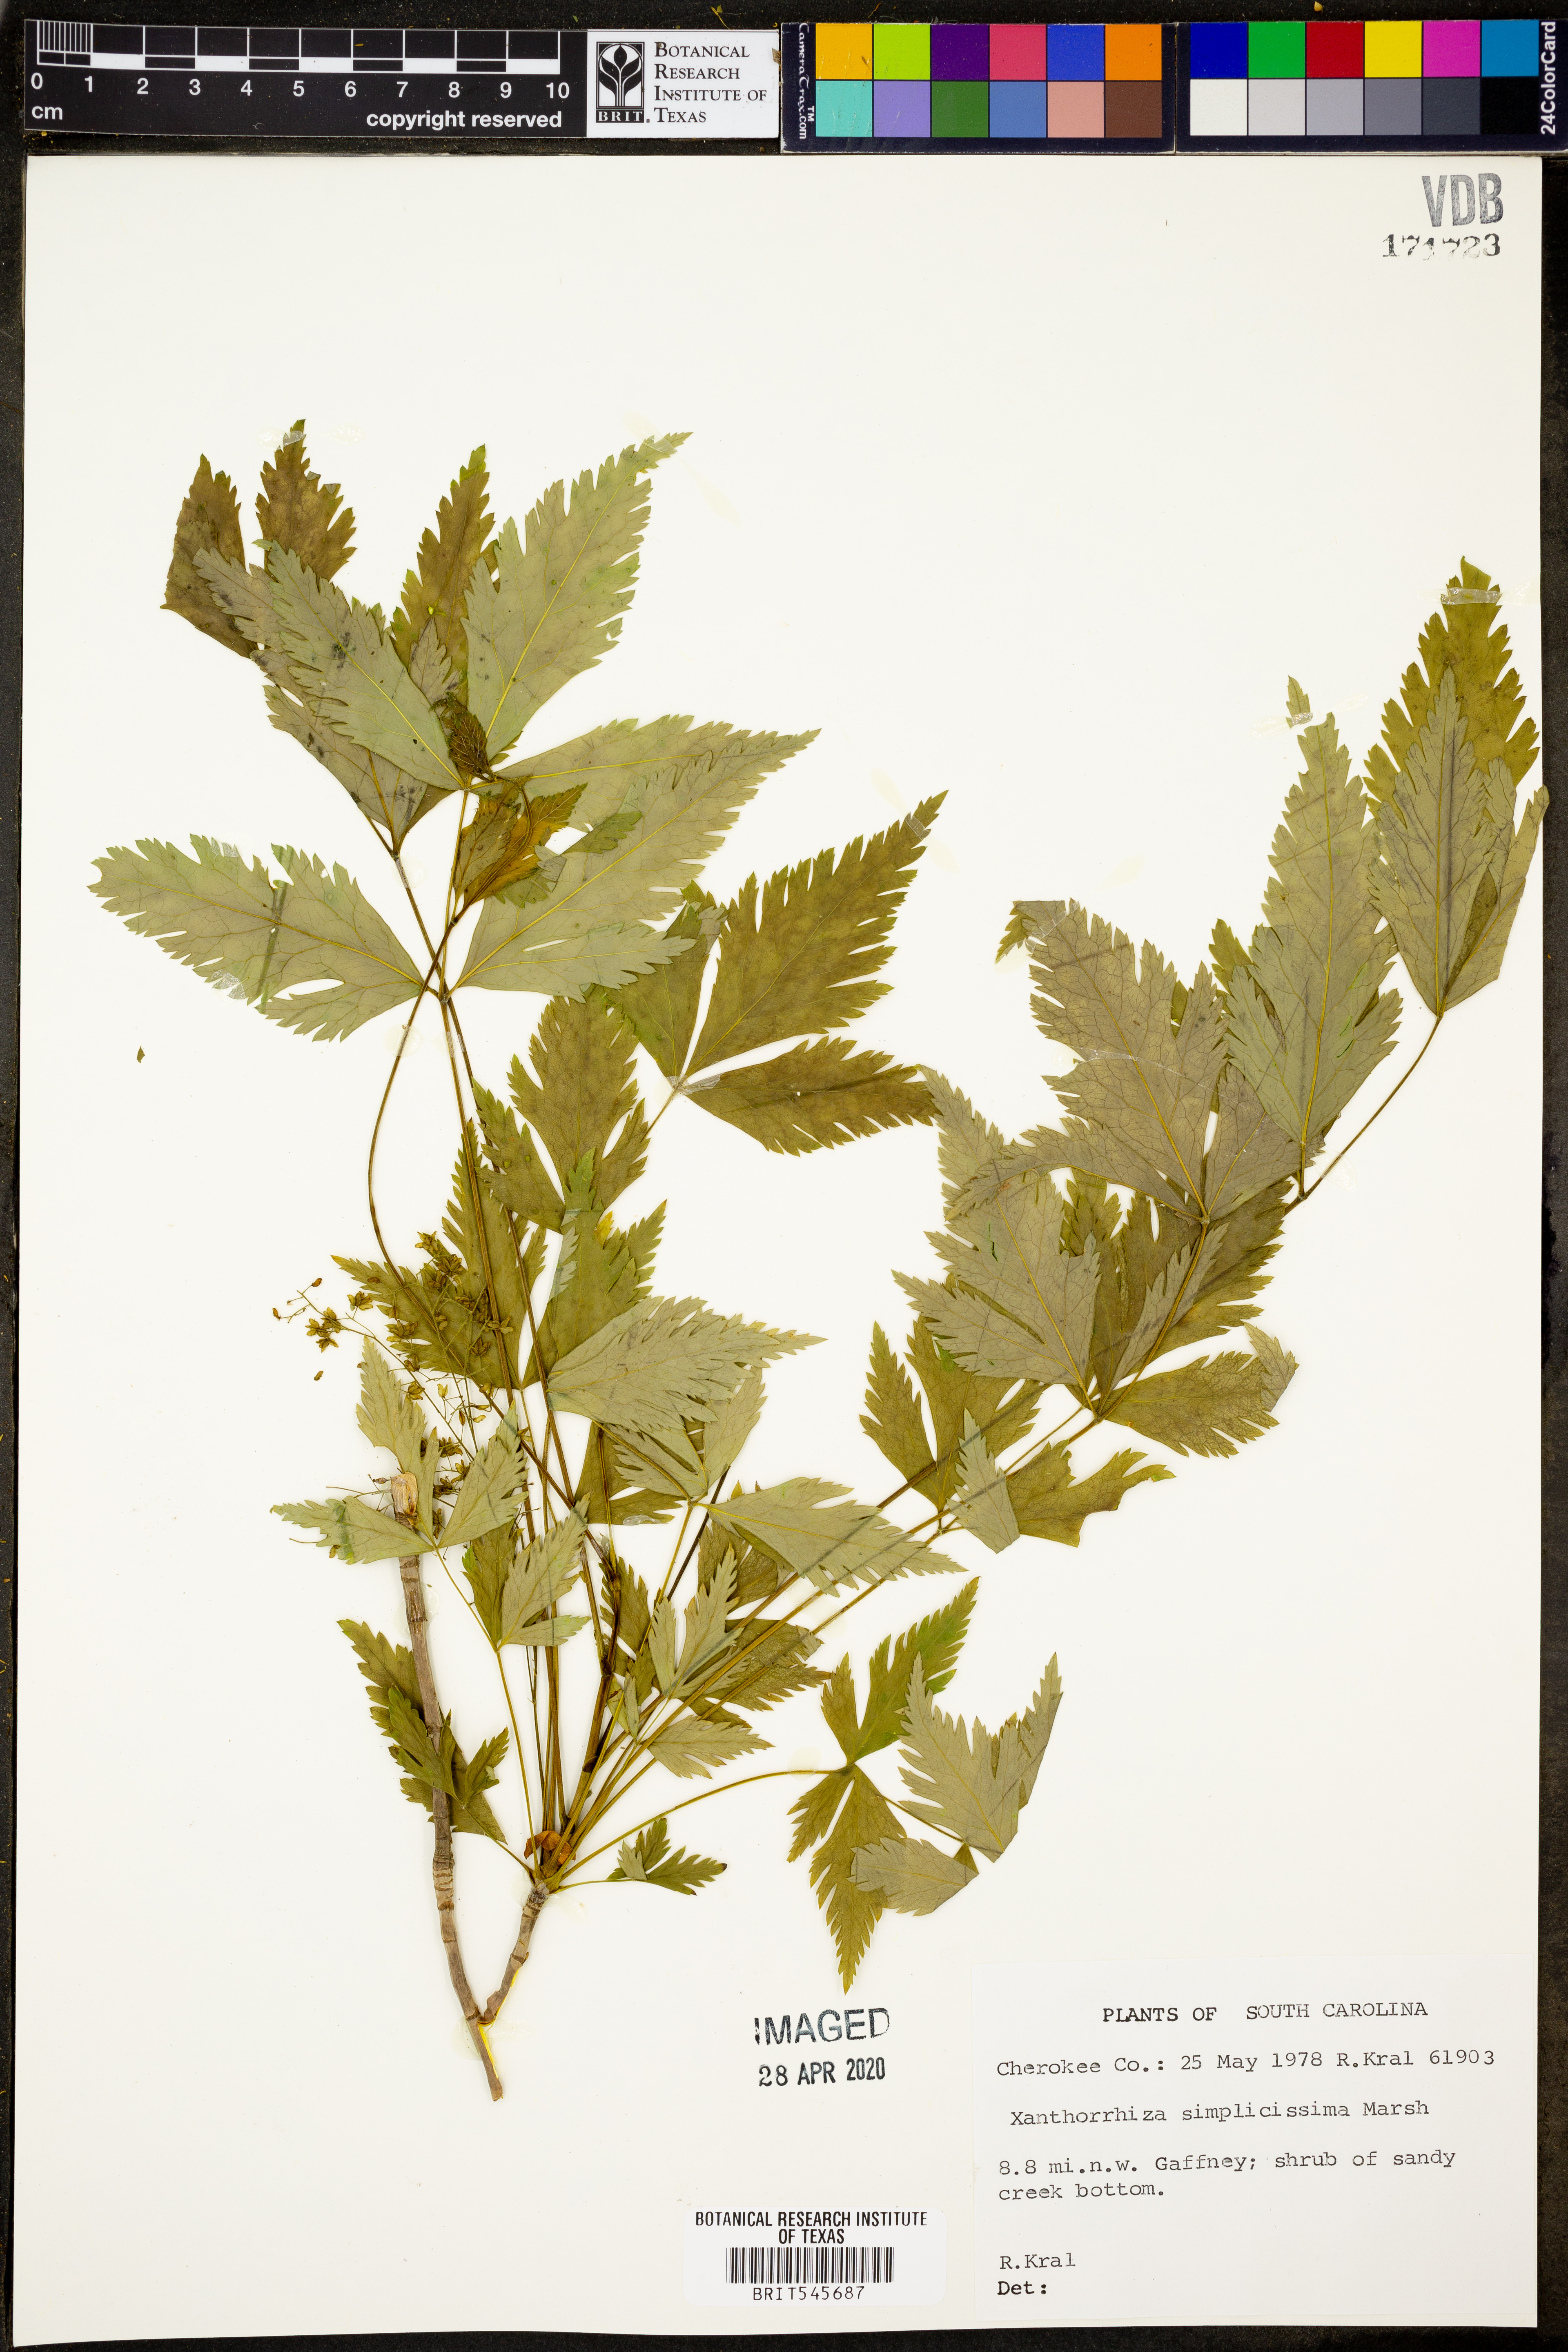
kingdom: Plantae
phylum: Tracheophyta
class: Magnoliopsida
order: Ranunculales
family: Ranunculaceae
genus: Xanthorhiza
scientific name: Xanthorhiza simplicissima
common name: Yellowroot
